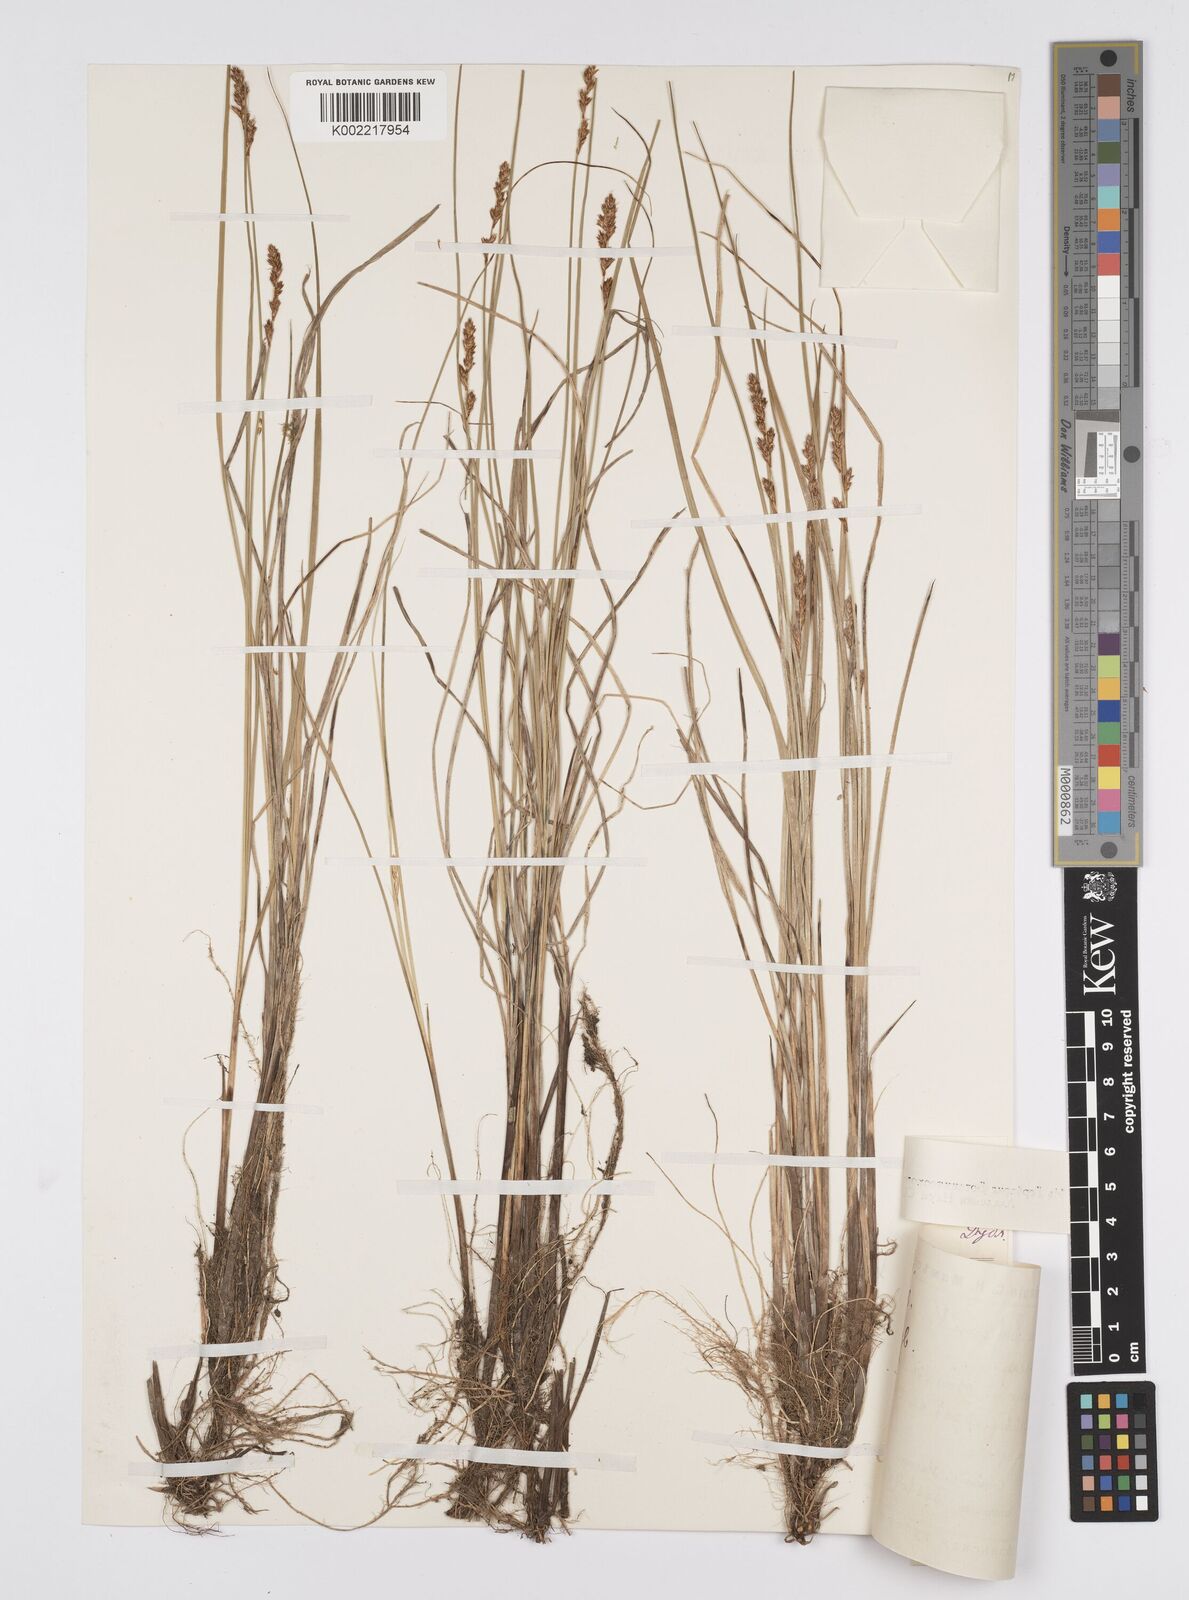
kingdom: Plantae
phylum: Tracheophyta
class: Liliopsida
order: Poales
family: Cyperaceae
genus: Carex
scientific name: Carex diandra
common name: Lesser tussock-sedge
